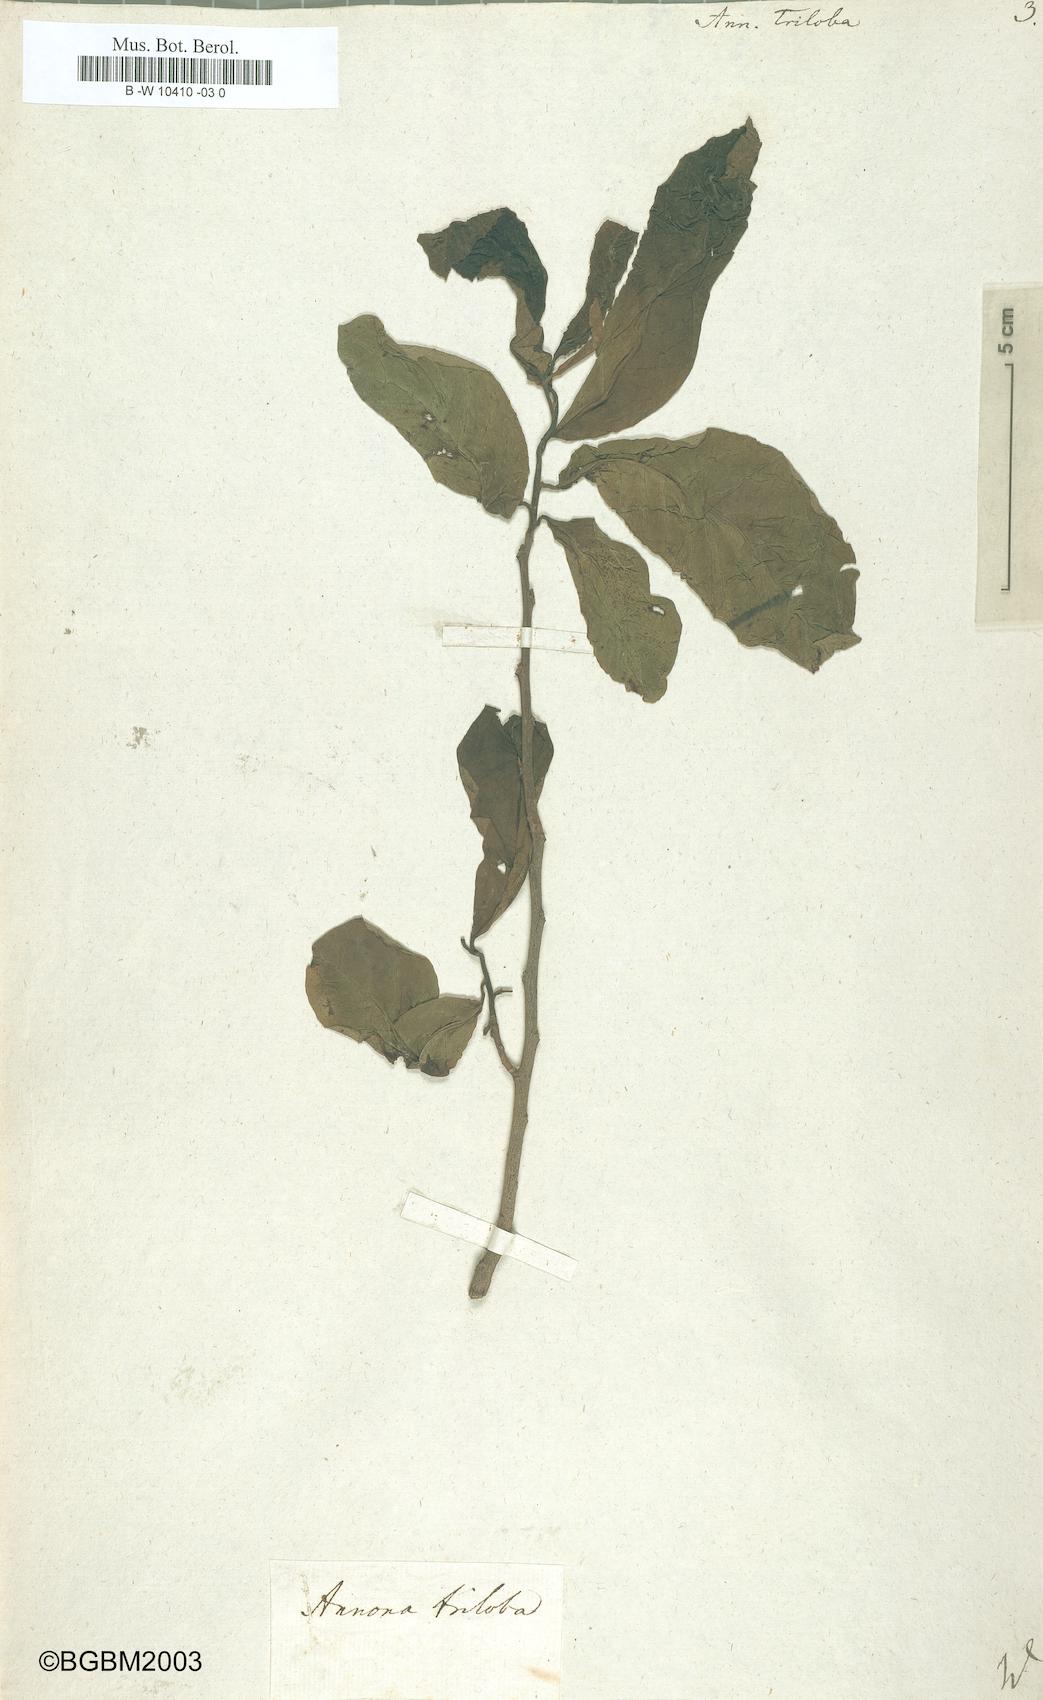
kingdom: Plantae
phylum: Tracheophyta
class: Magnoliopsida
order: Magnoliales
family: Annonaceae
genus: Asimina
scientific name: Asimina triloba
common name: Dog-banana
